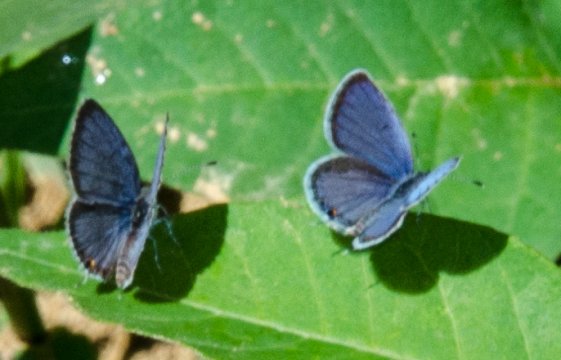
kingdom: Animalia
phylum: Arthropoda
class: Insecta
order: Lepidoptera
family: Lycaenidae
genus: Elkalyce
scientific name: Elkalyce comyntas
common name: Eastern Tailed-Blue
